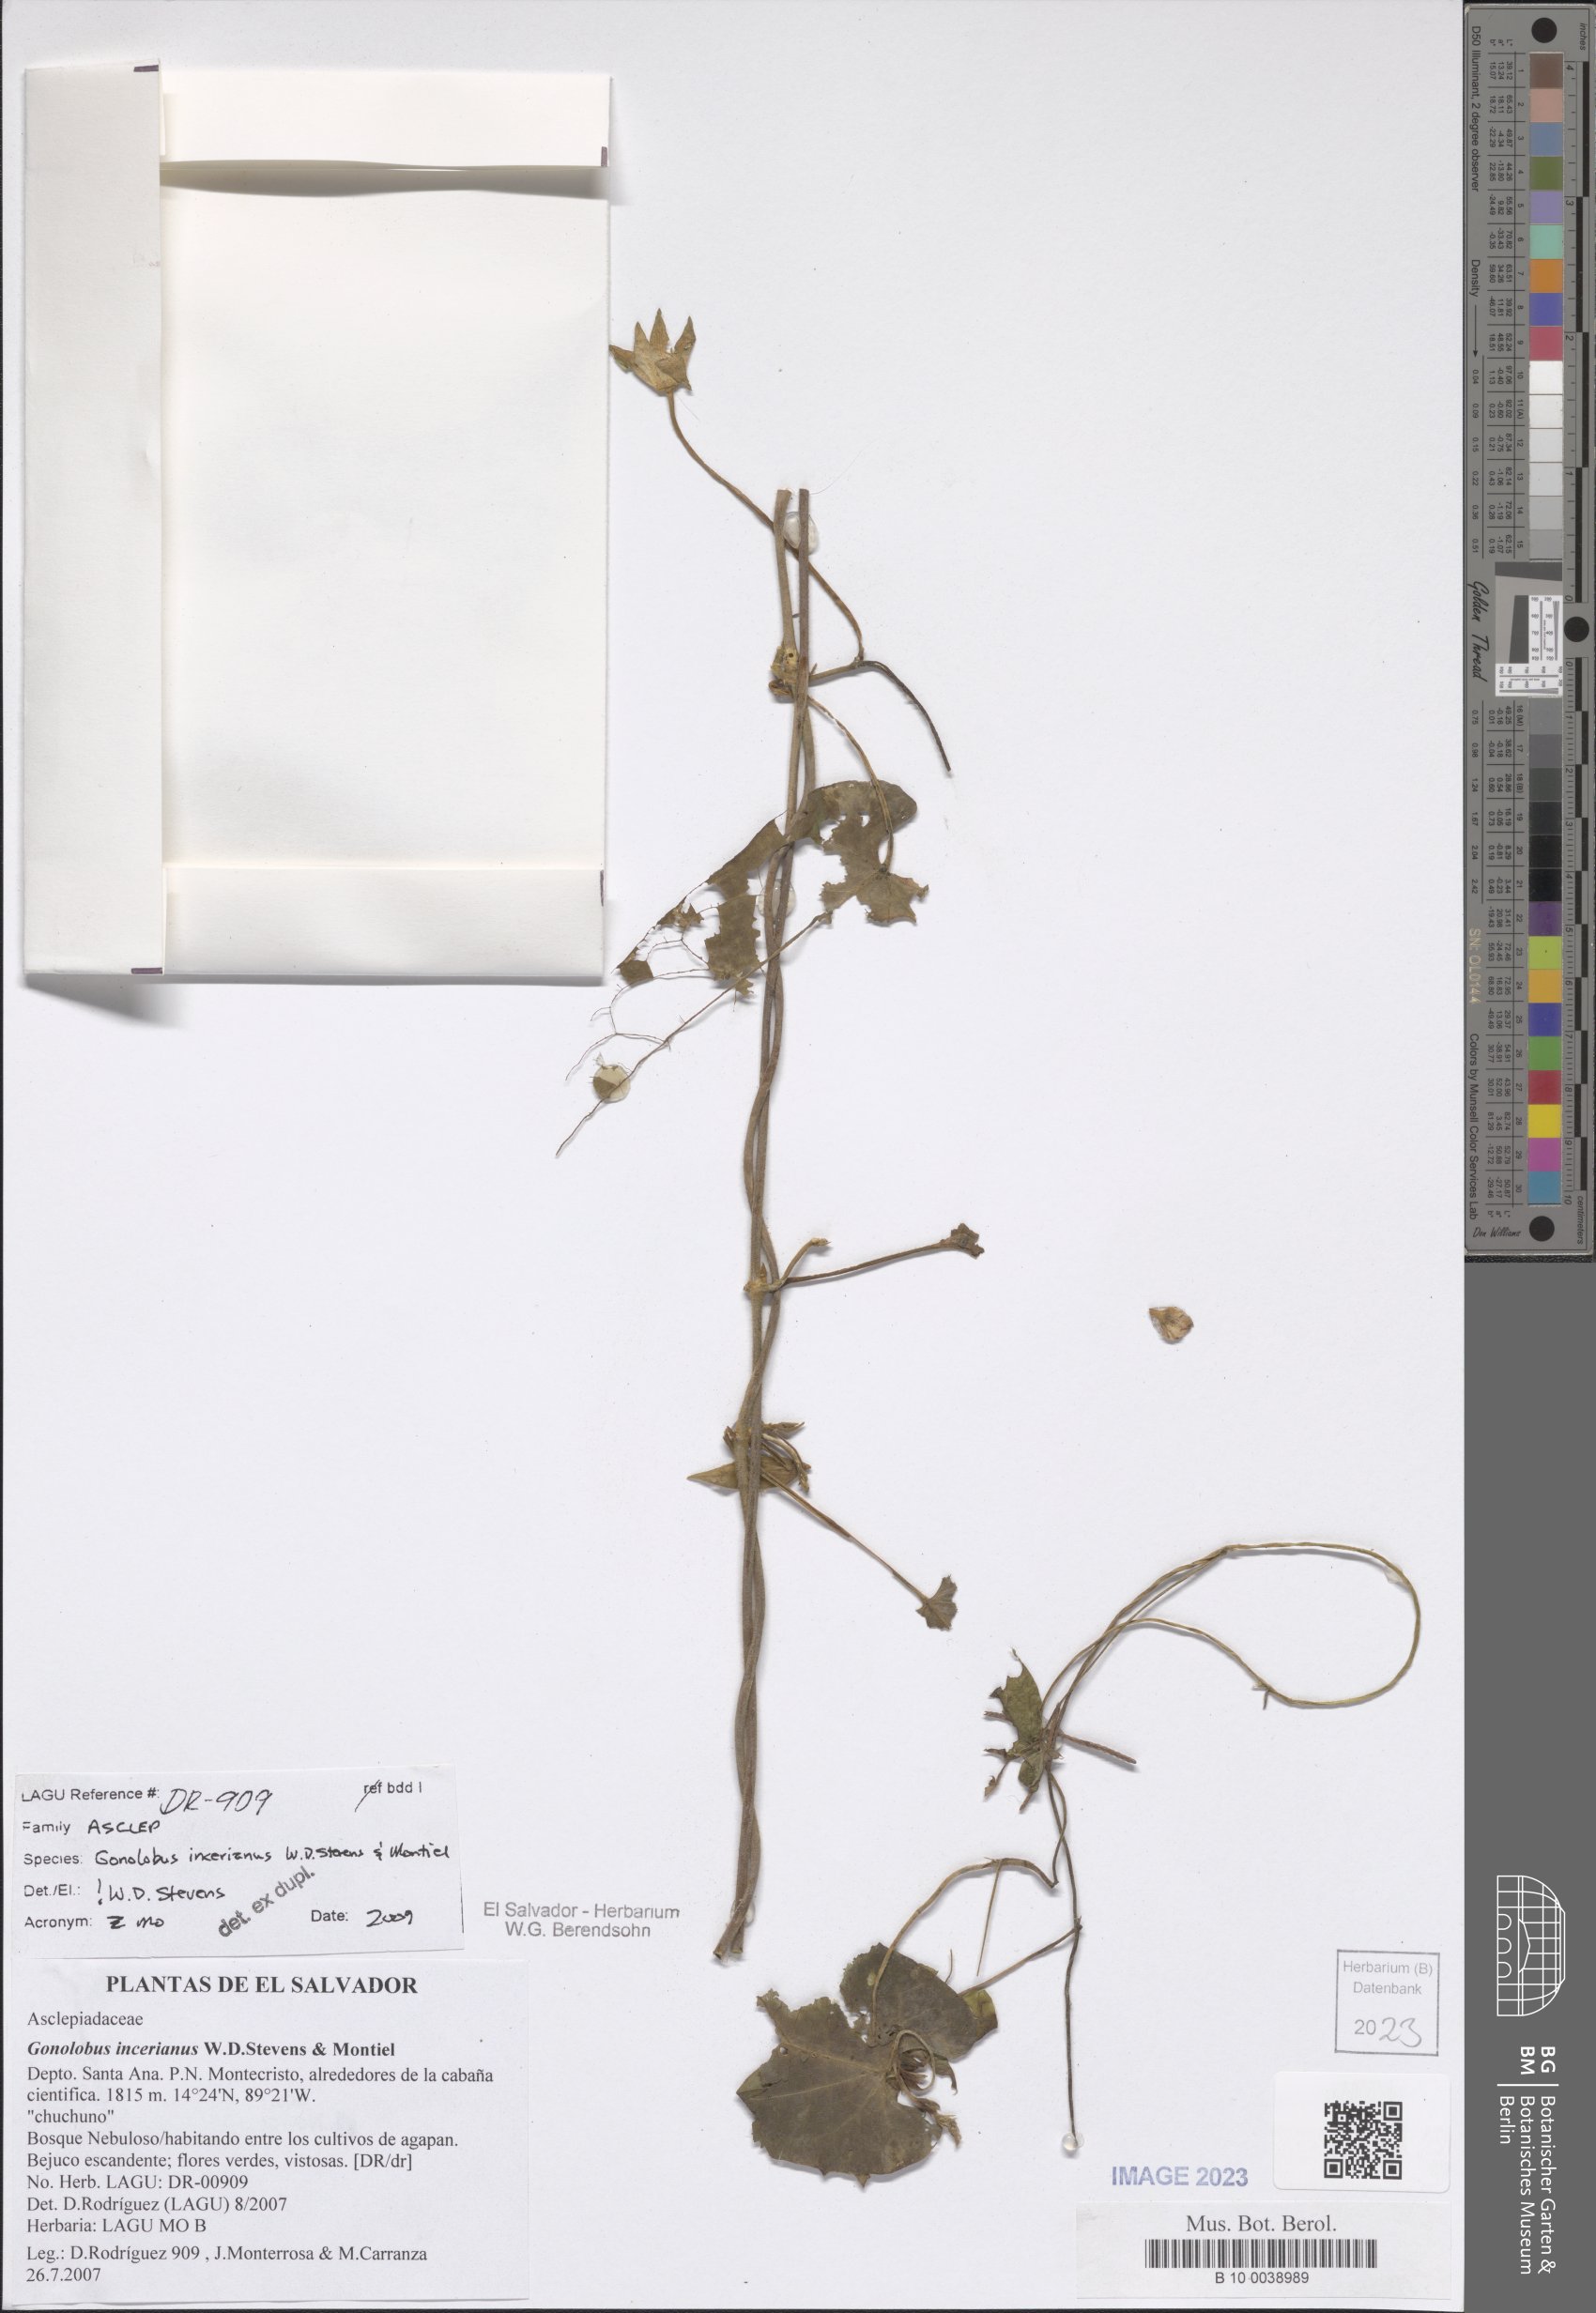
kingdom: Plantae
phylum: Tracheophyta
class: Magnoliopsida
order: Gentianales
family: Apocynaceae
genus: Gonolobus
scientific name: Gonolobus incerianus
